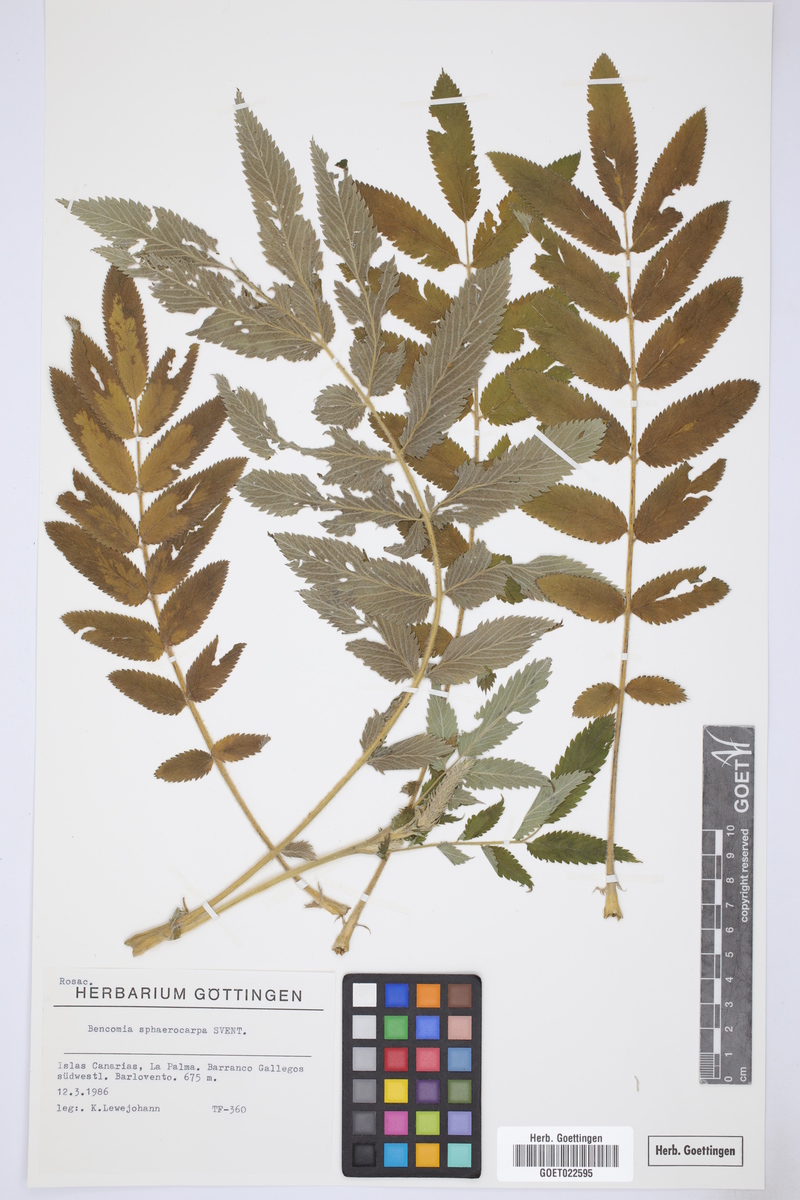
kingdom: Plantae
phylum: Tracheophyta
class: Magnoliopsida
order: Rosales
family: Rosaceae
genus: Bencomia
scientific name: Bencomia sphaerocarpa
